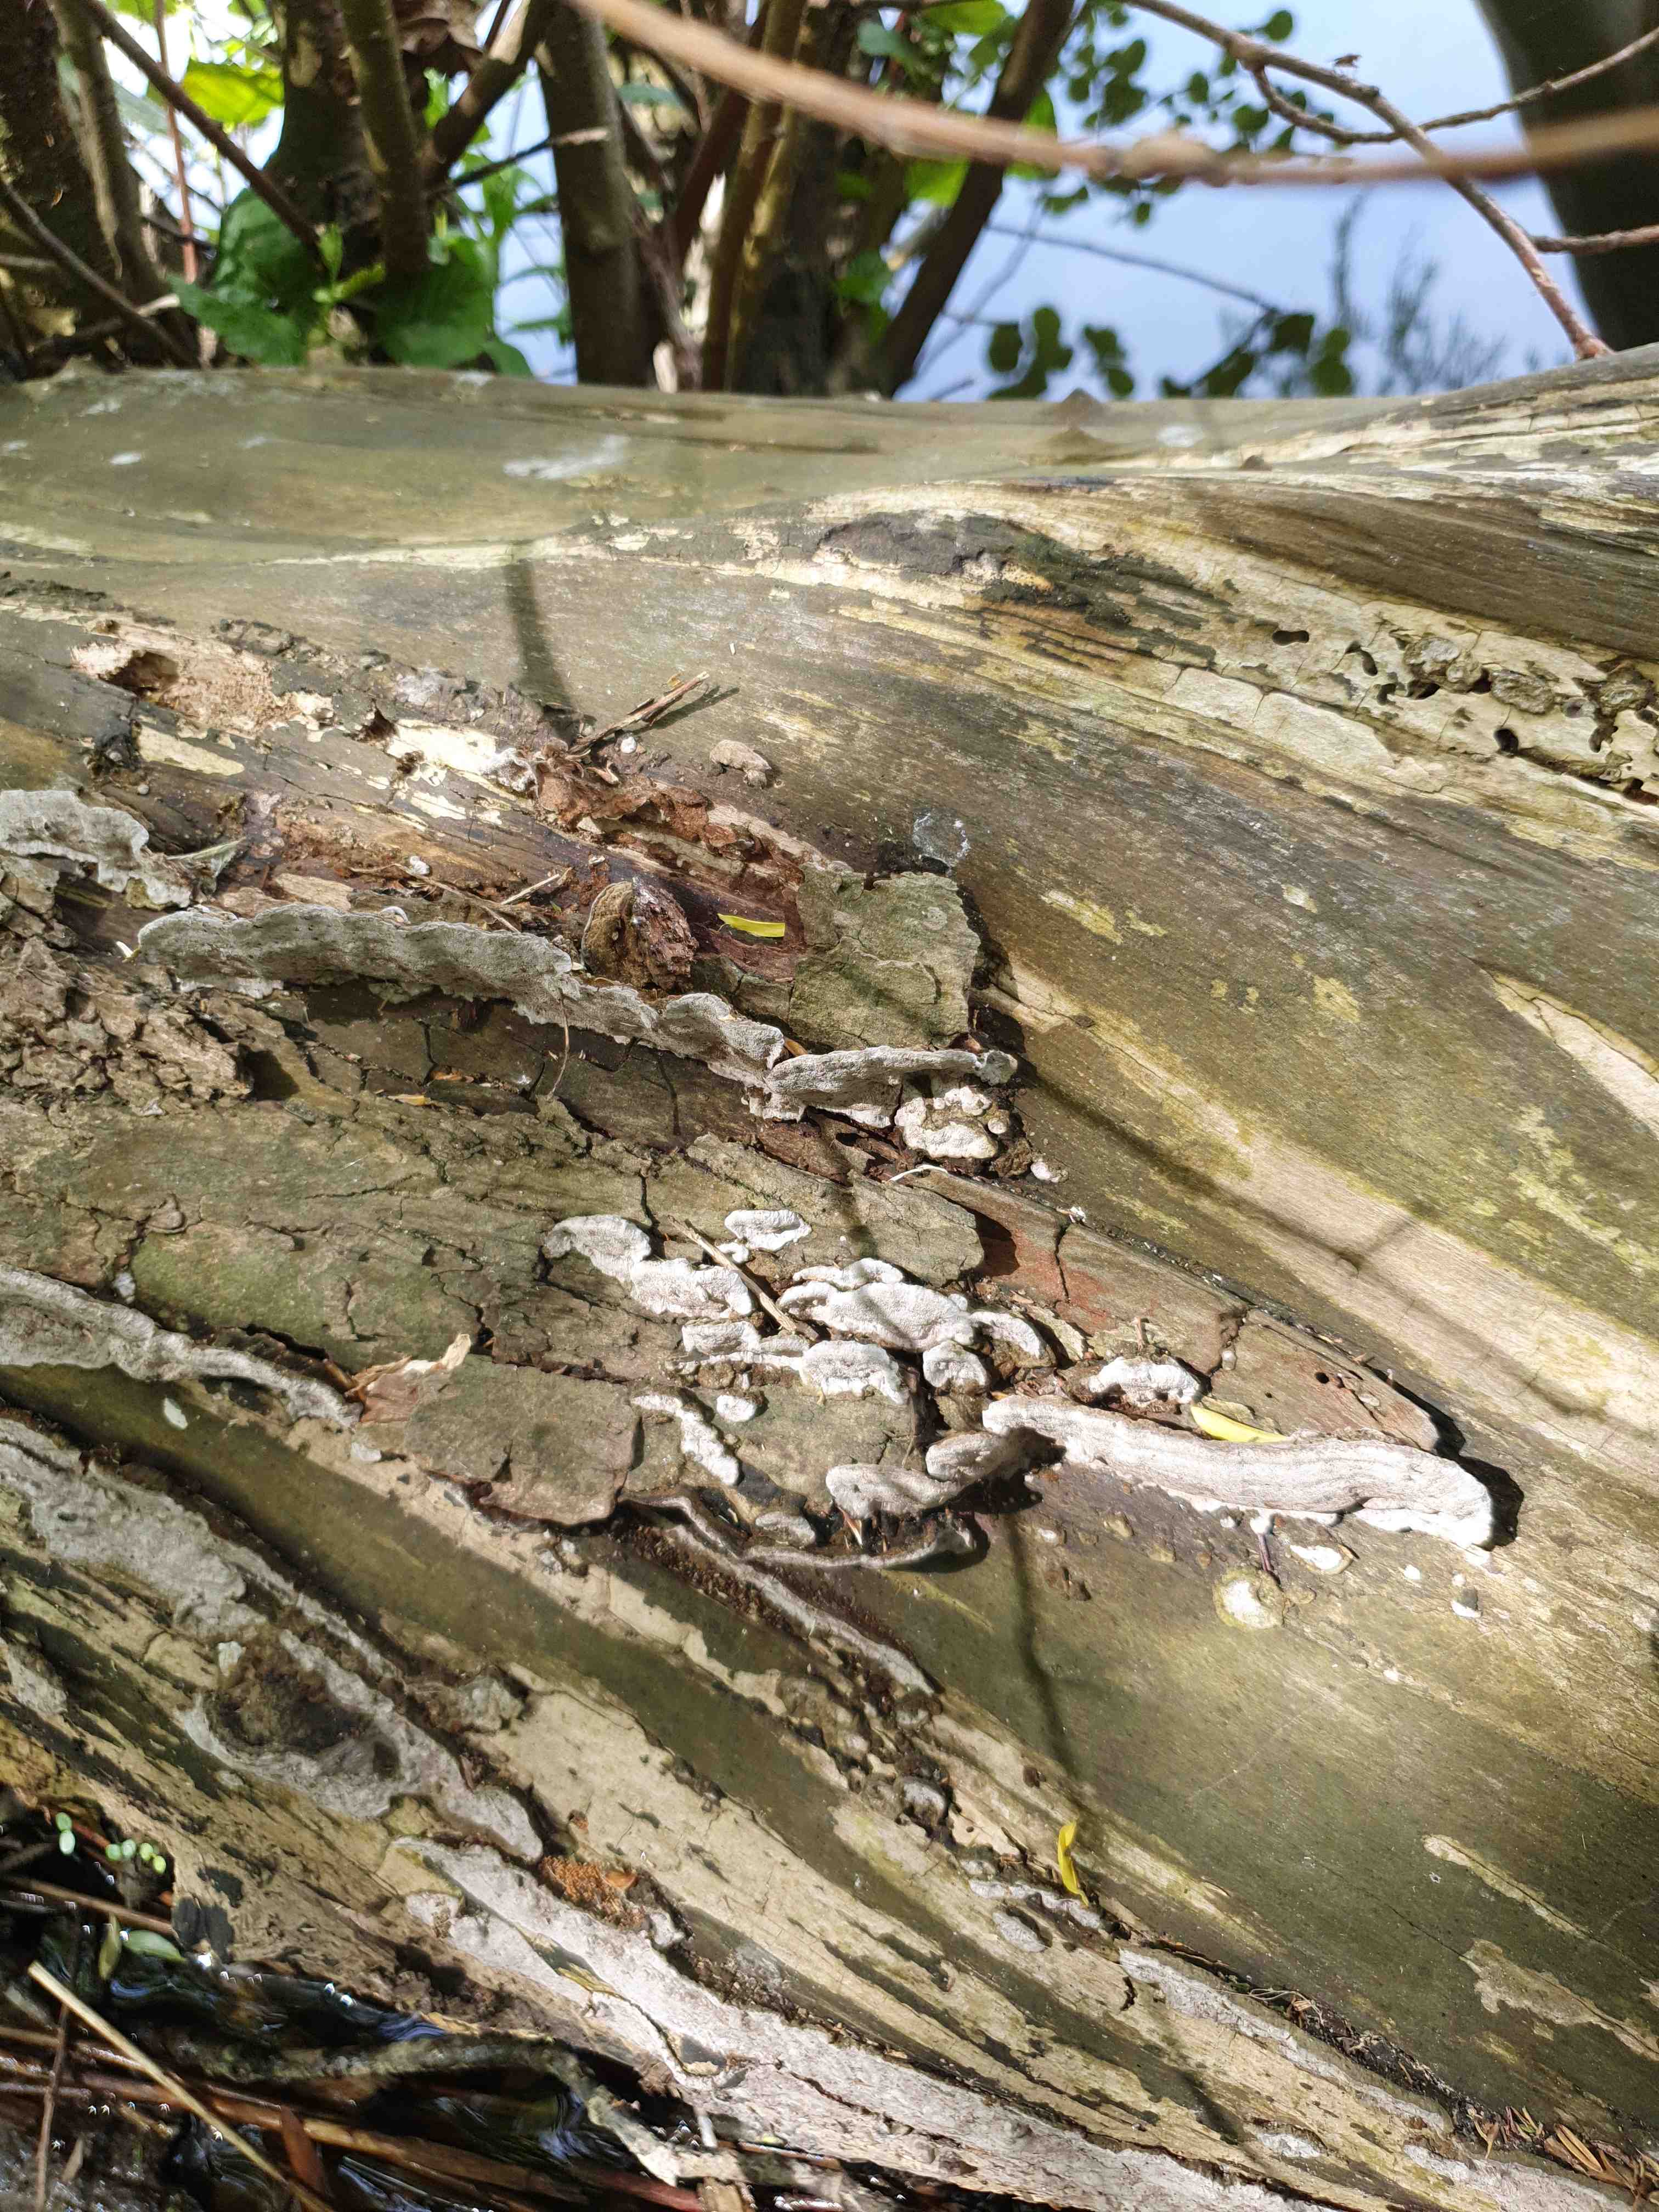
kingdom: Fungi
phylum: Basidiomycota
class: Agaricomycetes
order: Hymenochaetales
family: Hymenochaetaceae
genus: Phellinopsis
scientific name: Phellinopsis conchata
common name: pile-ildporesvamp
